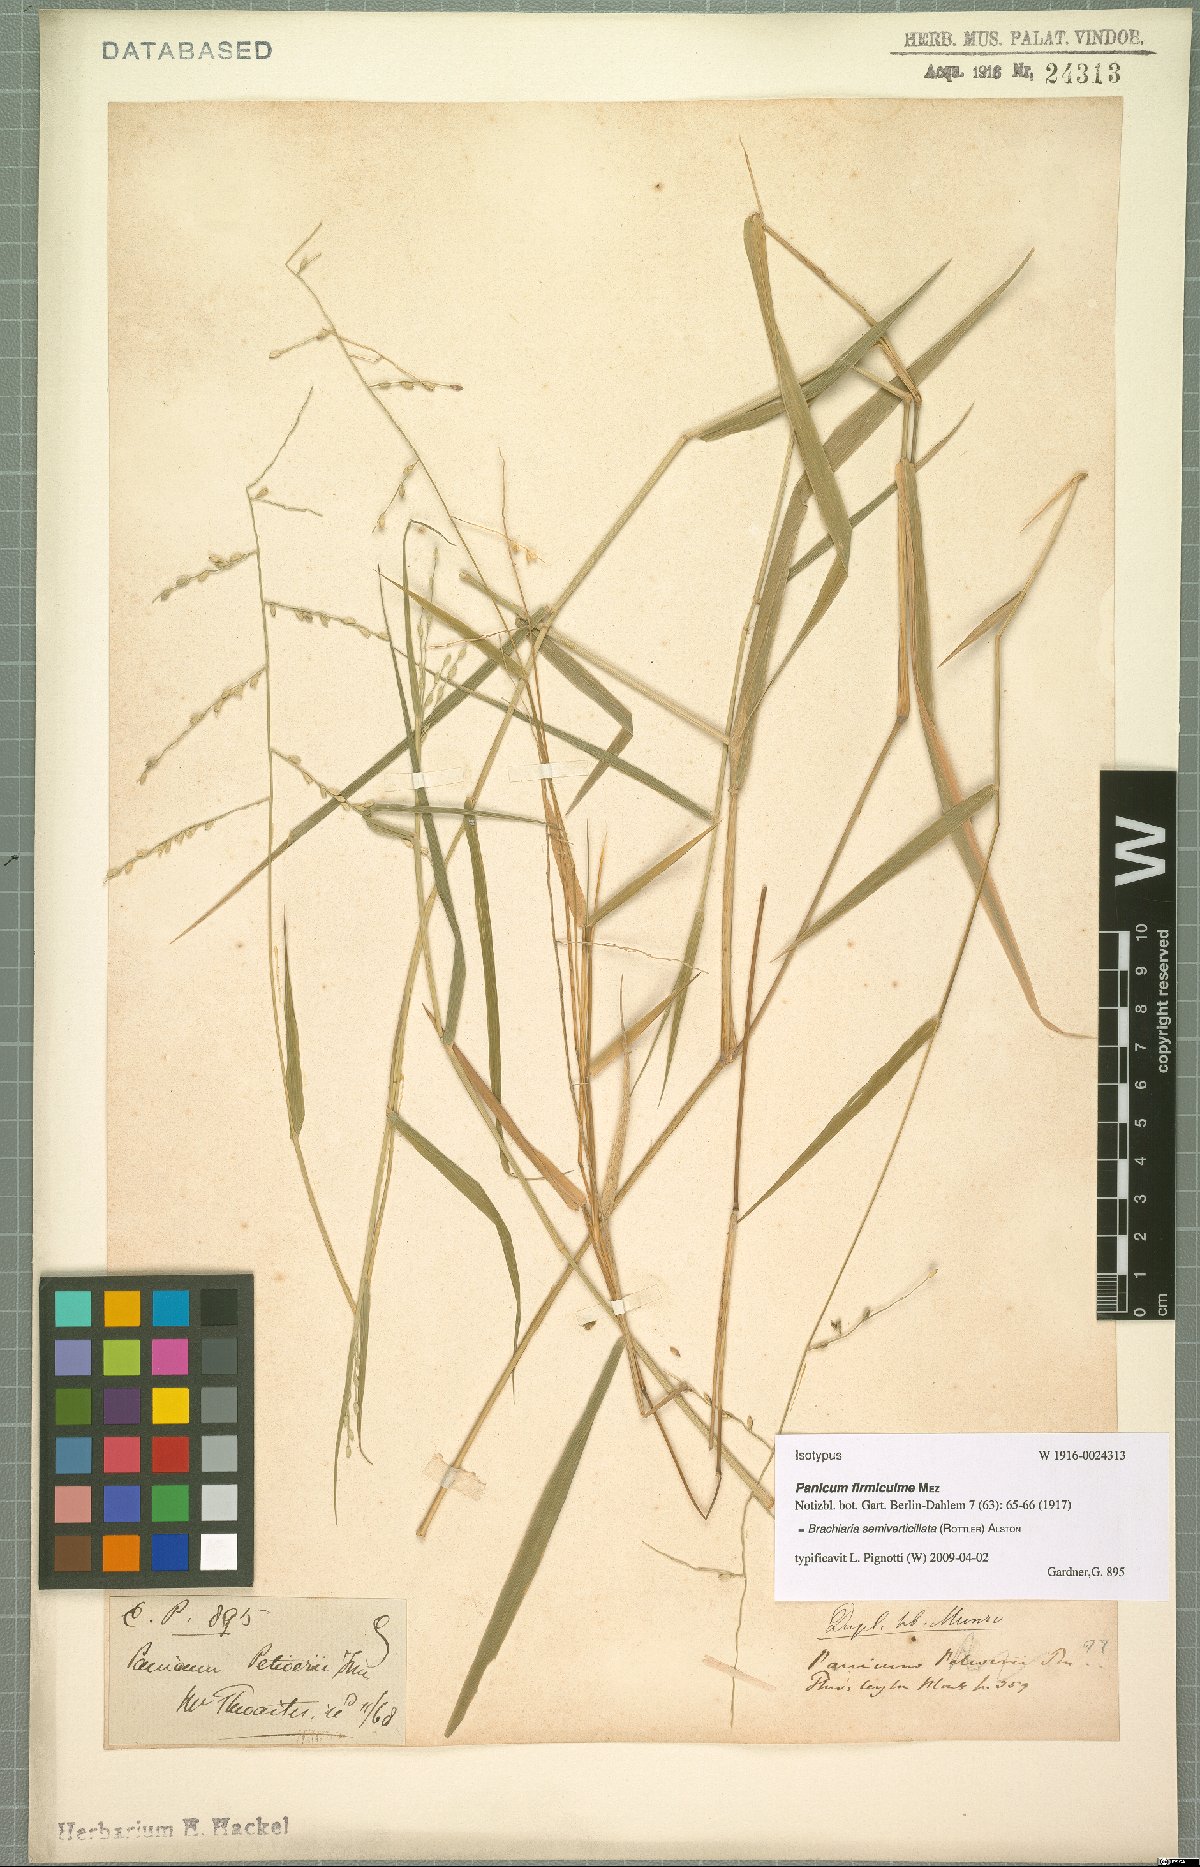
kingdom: Plantae
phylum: Tracheophyta
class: Liliopsida
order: Poales
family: Poaceae
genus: Urochloa
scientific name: Urochloa Brachiaria semiverticillata
